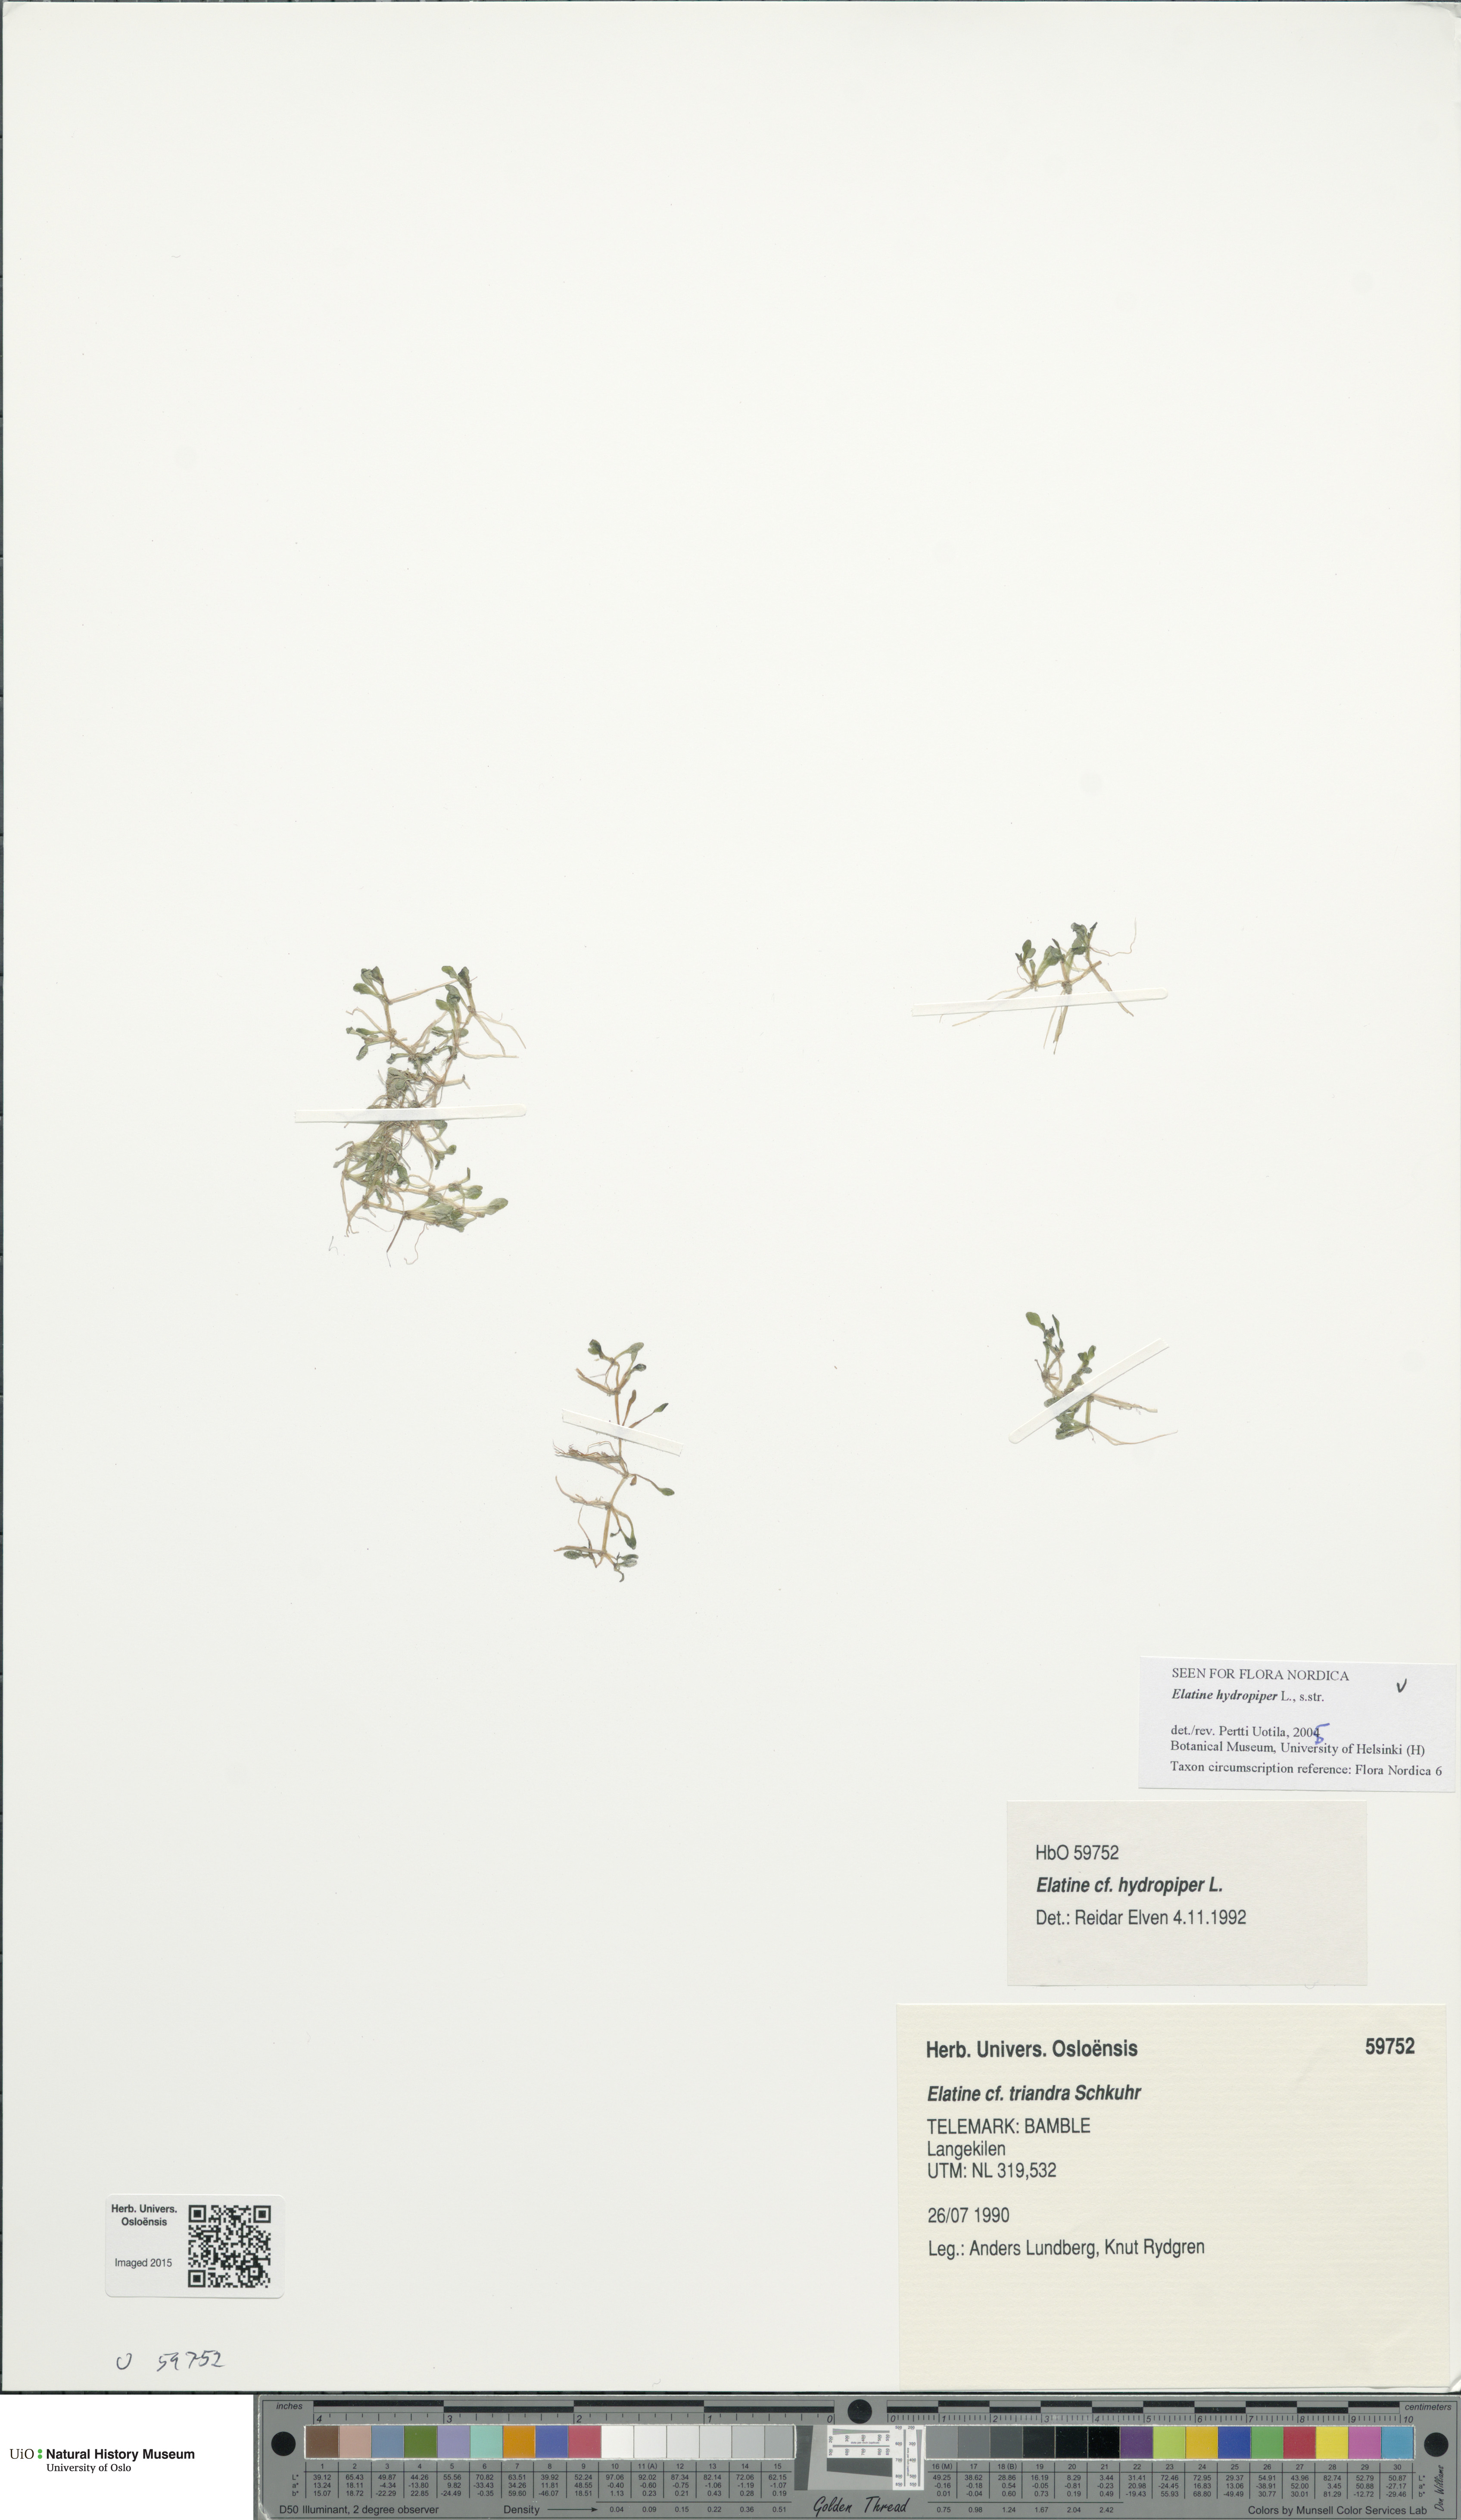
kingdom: Plantae
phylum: Tracheophyta
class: Magnoliopsida
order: Malpighiales
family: Elatinaceae
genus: Elatine
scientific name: Elatine hydropiper
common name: Eight-stamened waterwort
